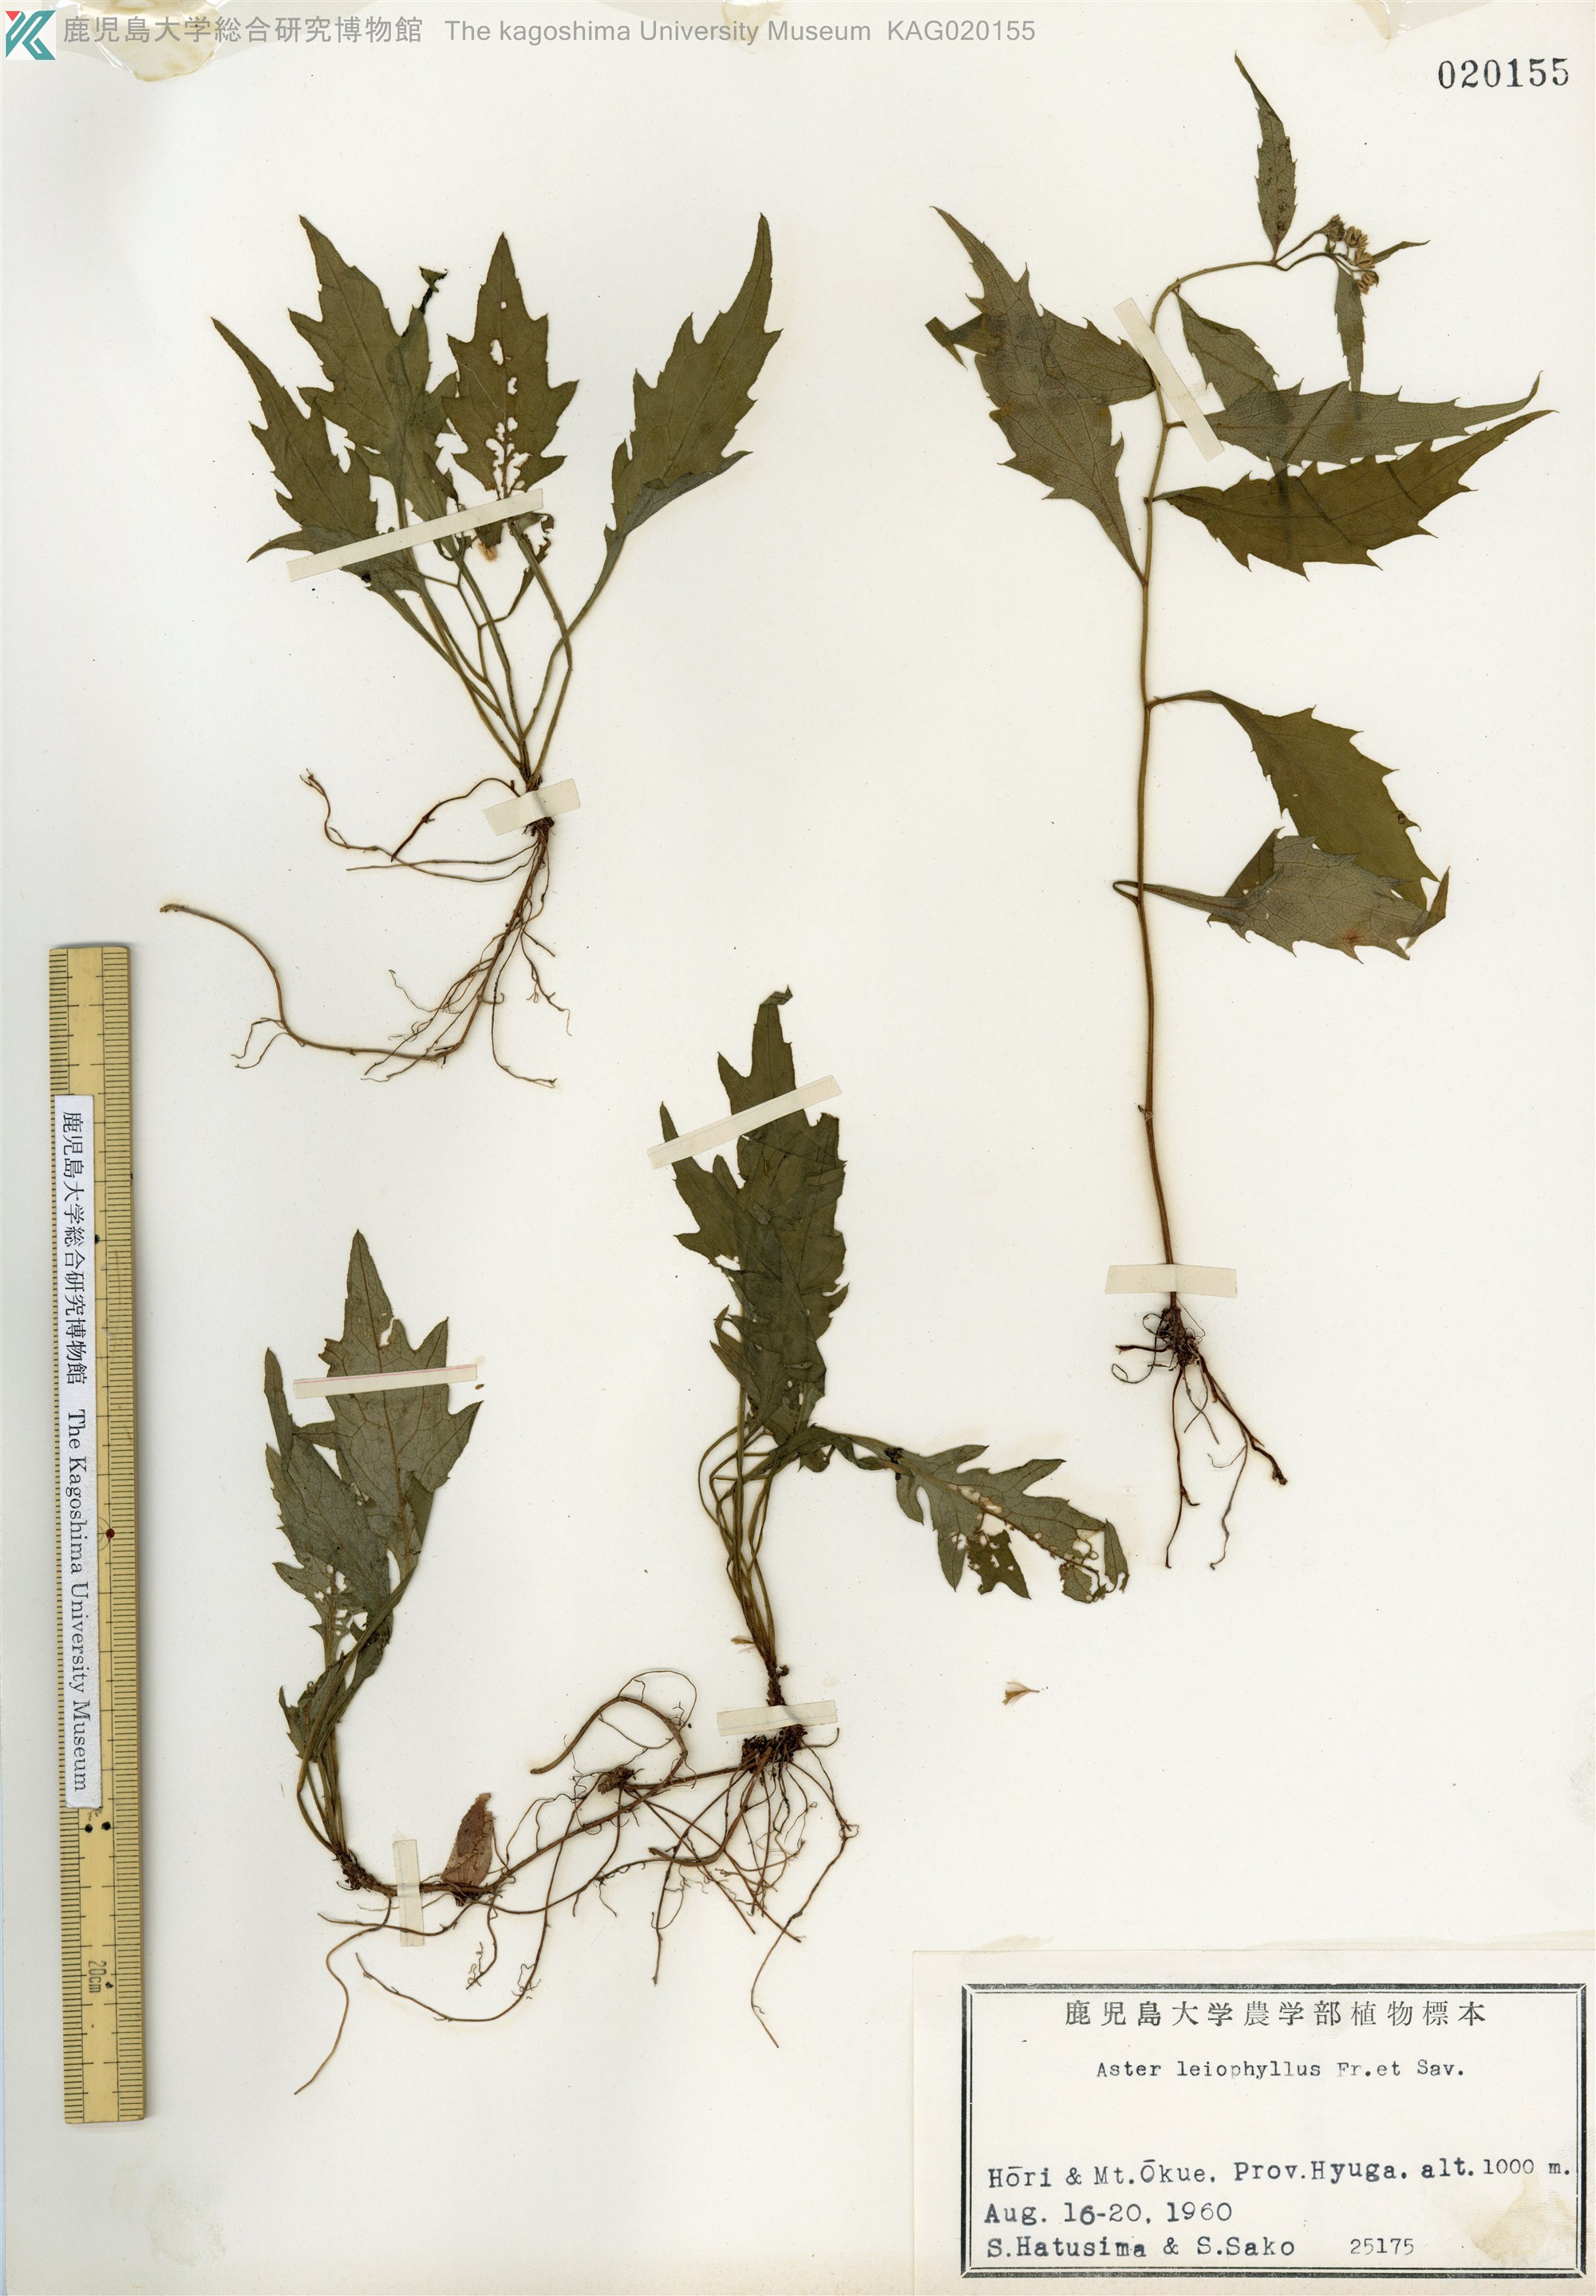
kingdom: Plantae
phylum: Tracheophyta
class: Magnoliopsida
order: Asterales
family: Asteraceae
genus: Aster
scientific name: Aster ageratoides
